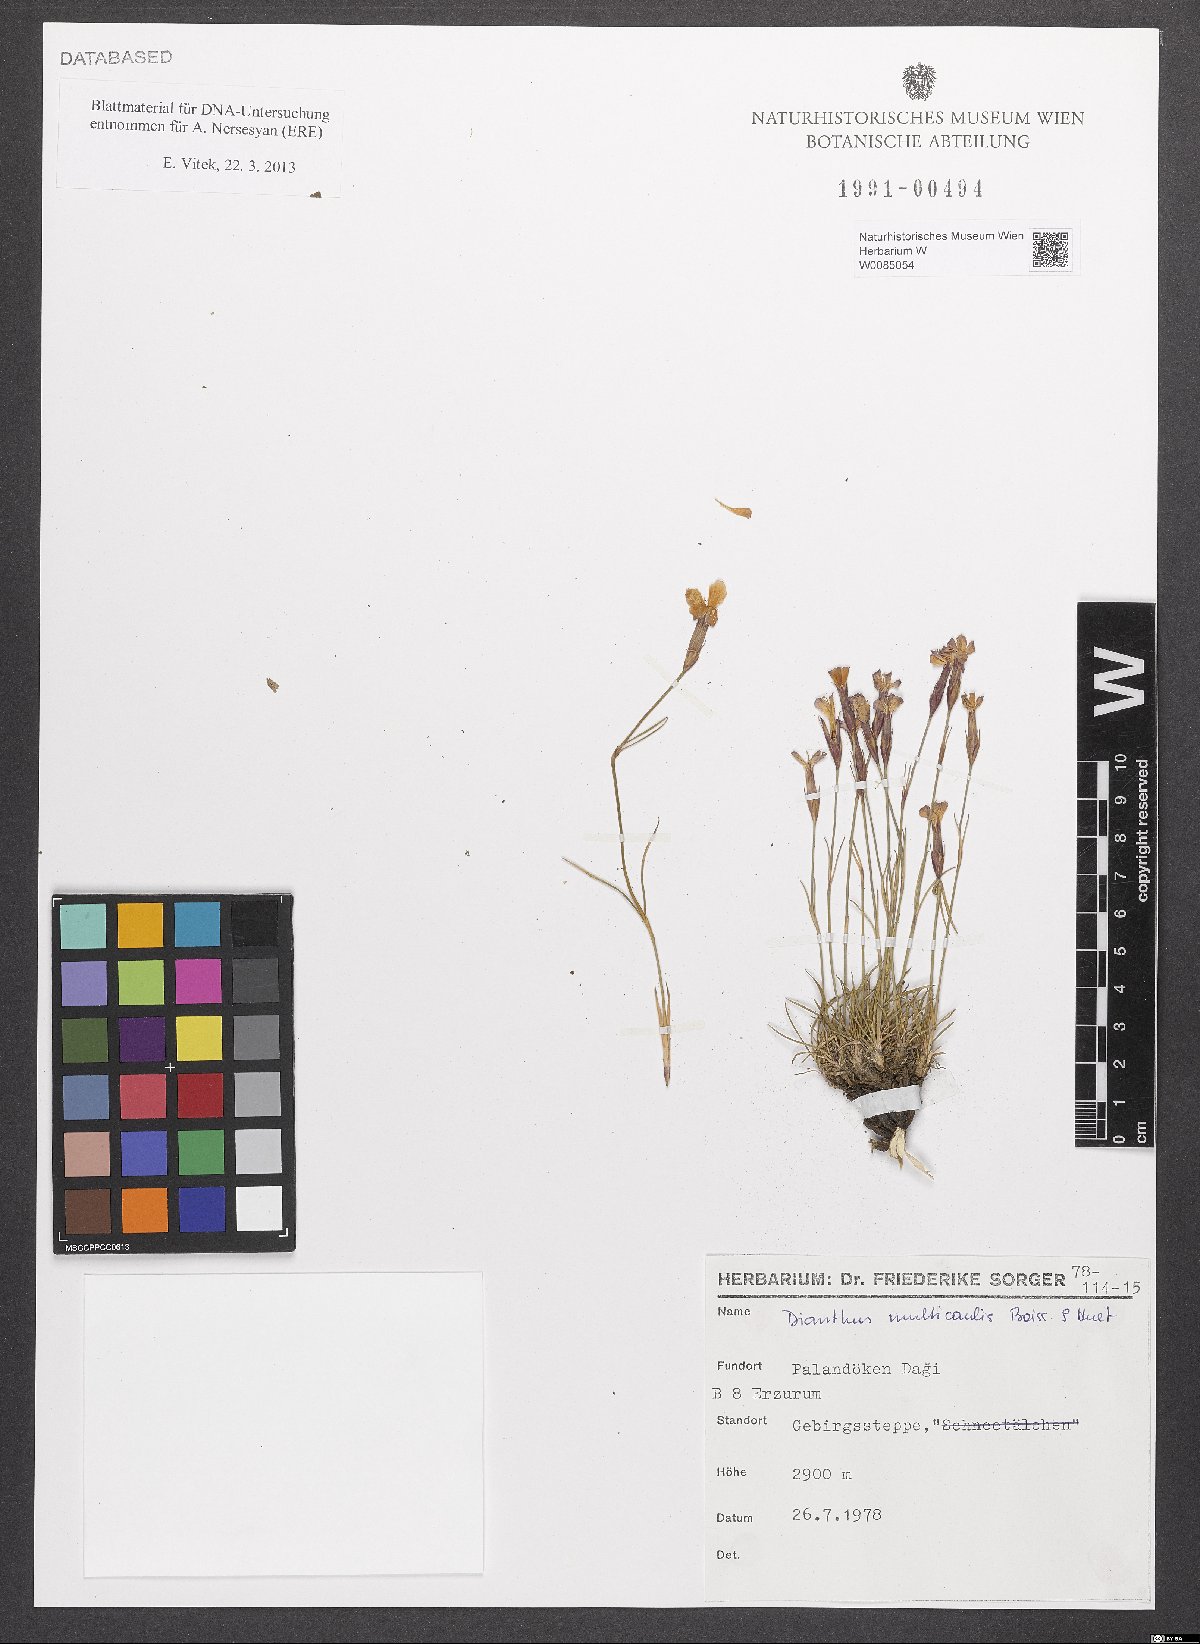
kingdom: Plantae
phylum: Tracheophyta
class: Magnoliopsida
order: Caryophyllales
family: Caryophyllaceae
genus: Dianthus
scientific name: Dianthus micranthus
